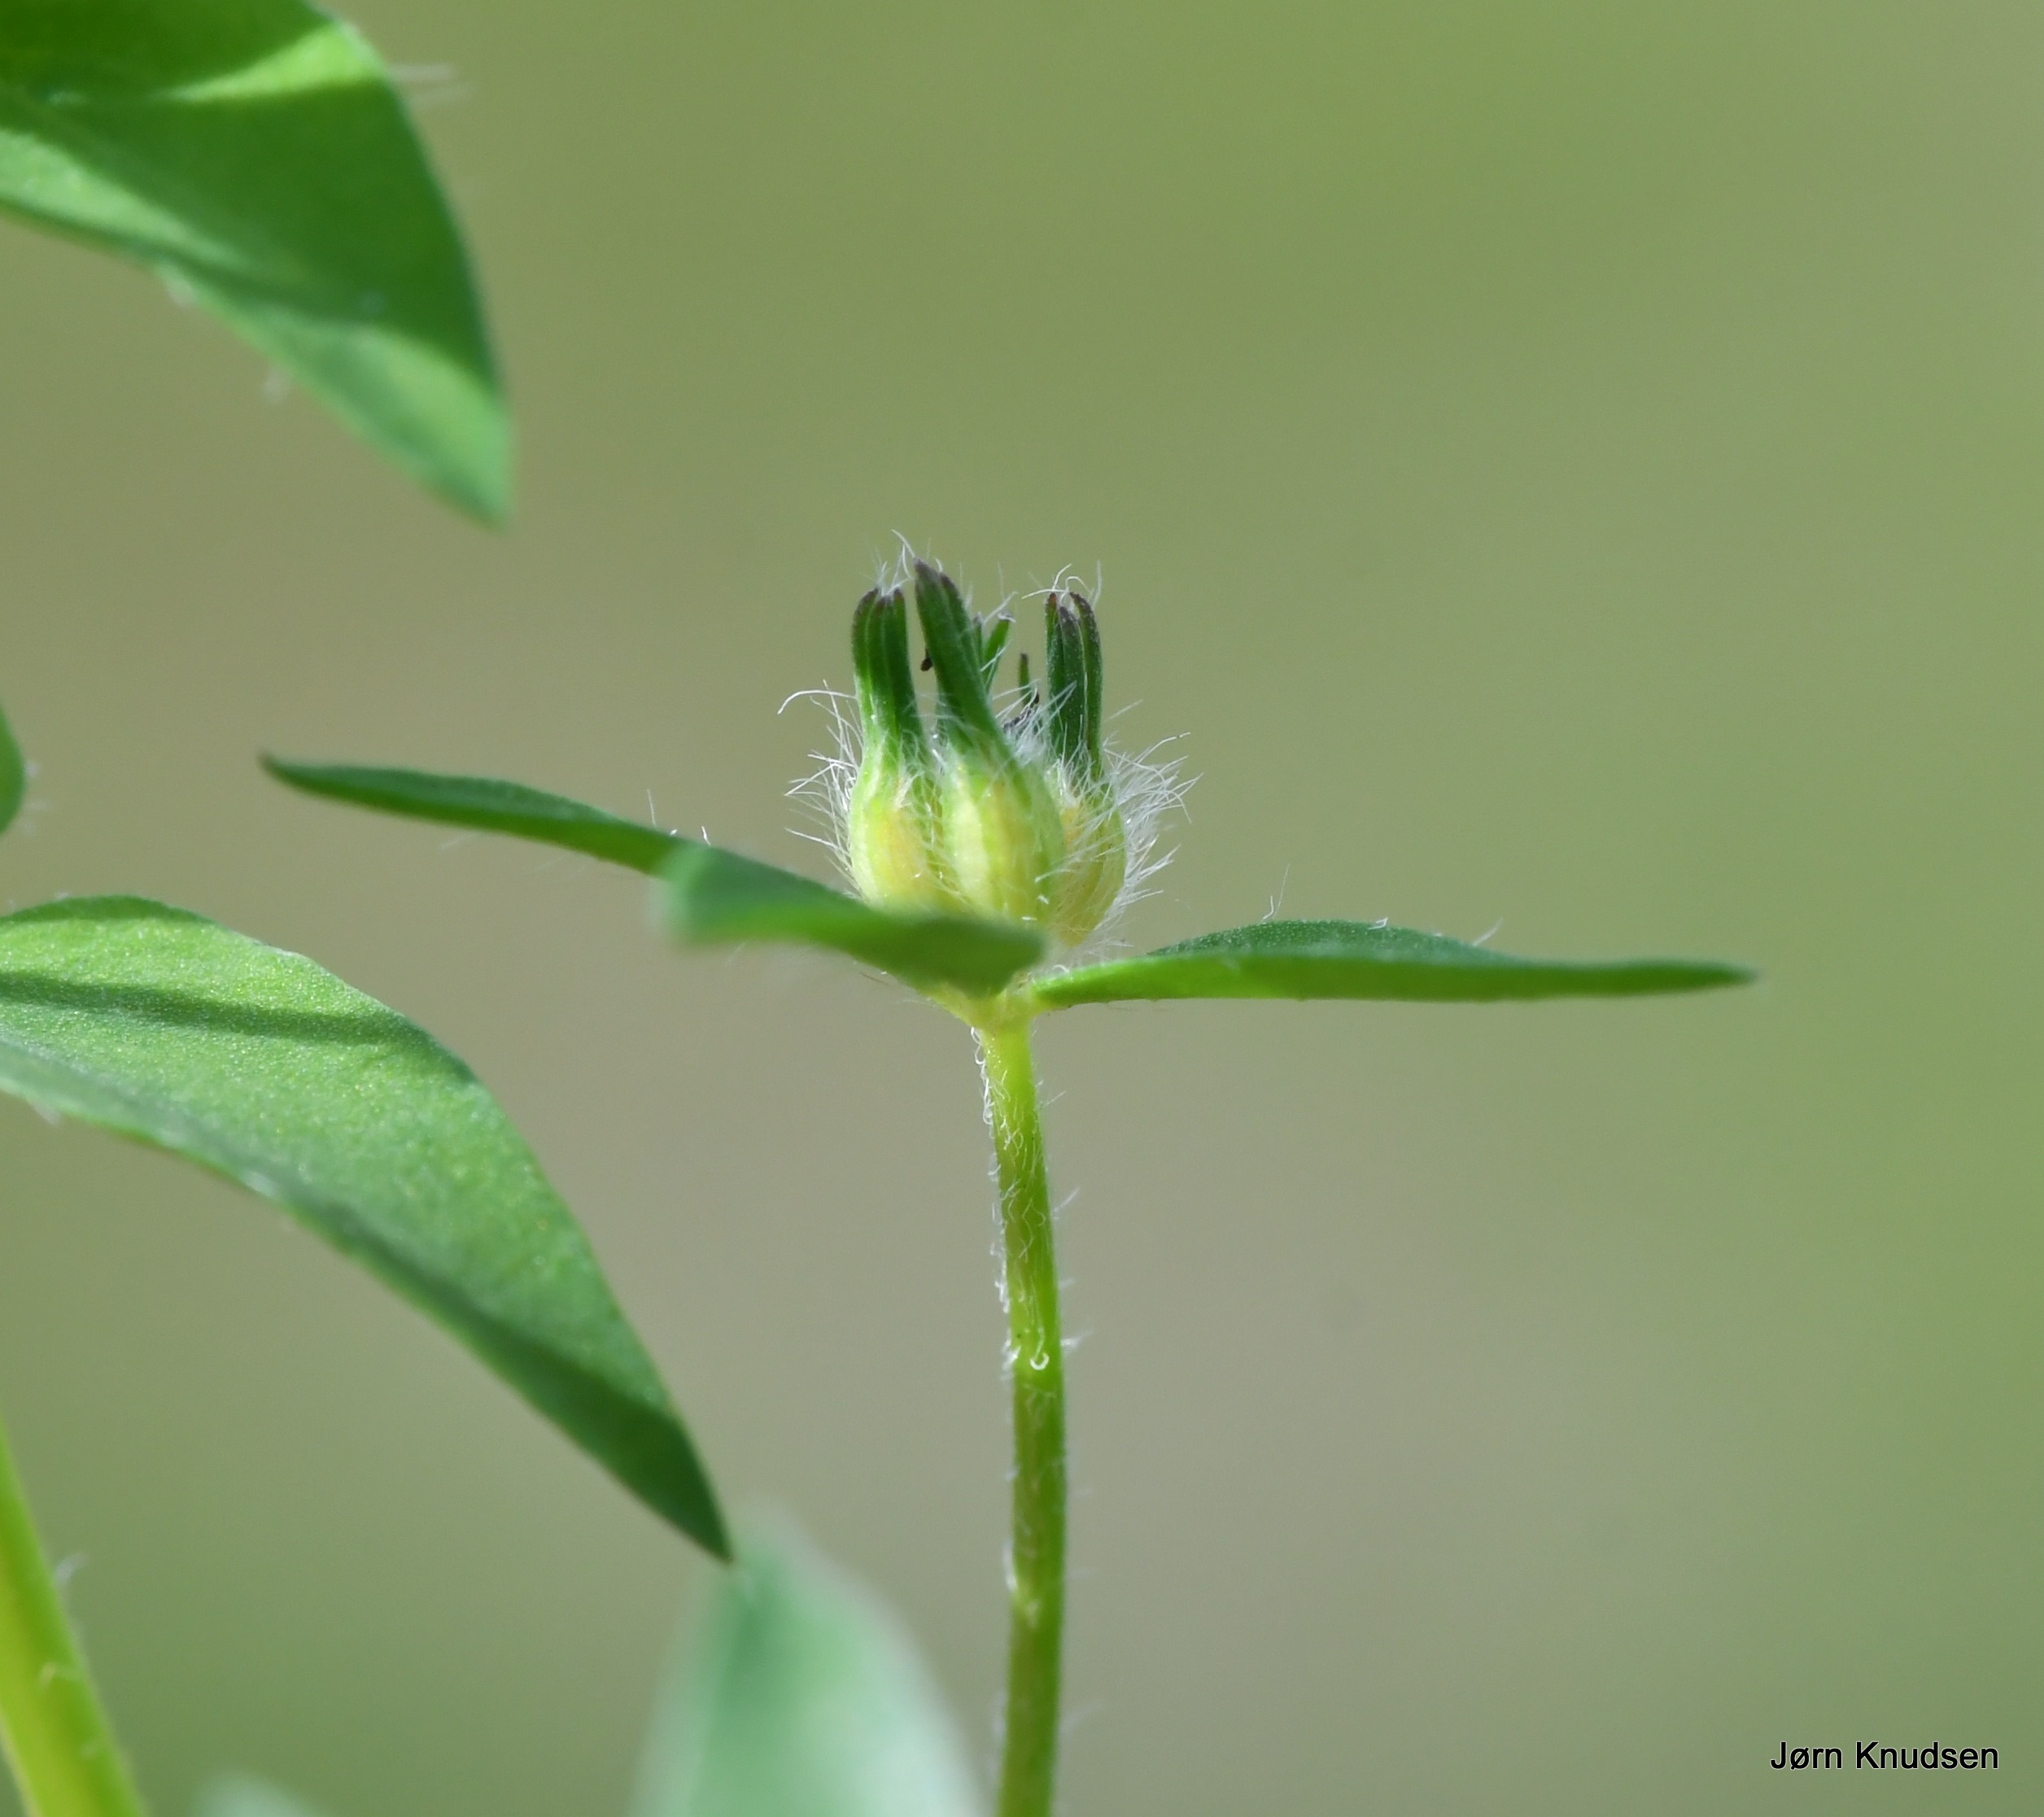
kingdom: Plantae
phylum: Tracheophyta
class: Magnoliopsida
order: Fabales
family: Fabaceae
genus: Lotus
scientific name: Lotus corniculatus
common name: Almindelig kællingetand
